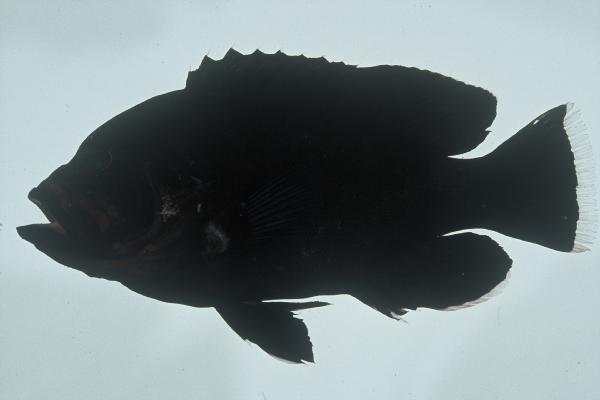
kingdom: Animalia
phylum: Chordata
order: Perciformes
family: Serranidae
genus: Aethaloperca
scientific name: Aethaloperca rogaa
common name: Redmouth grouper
